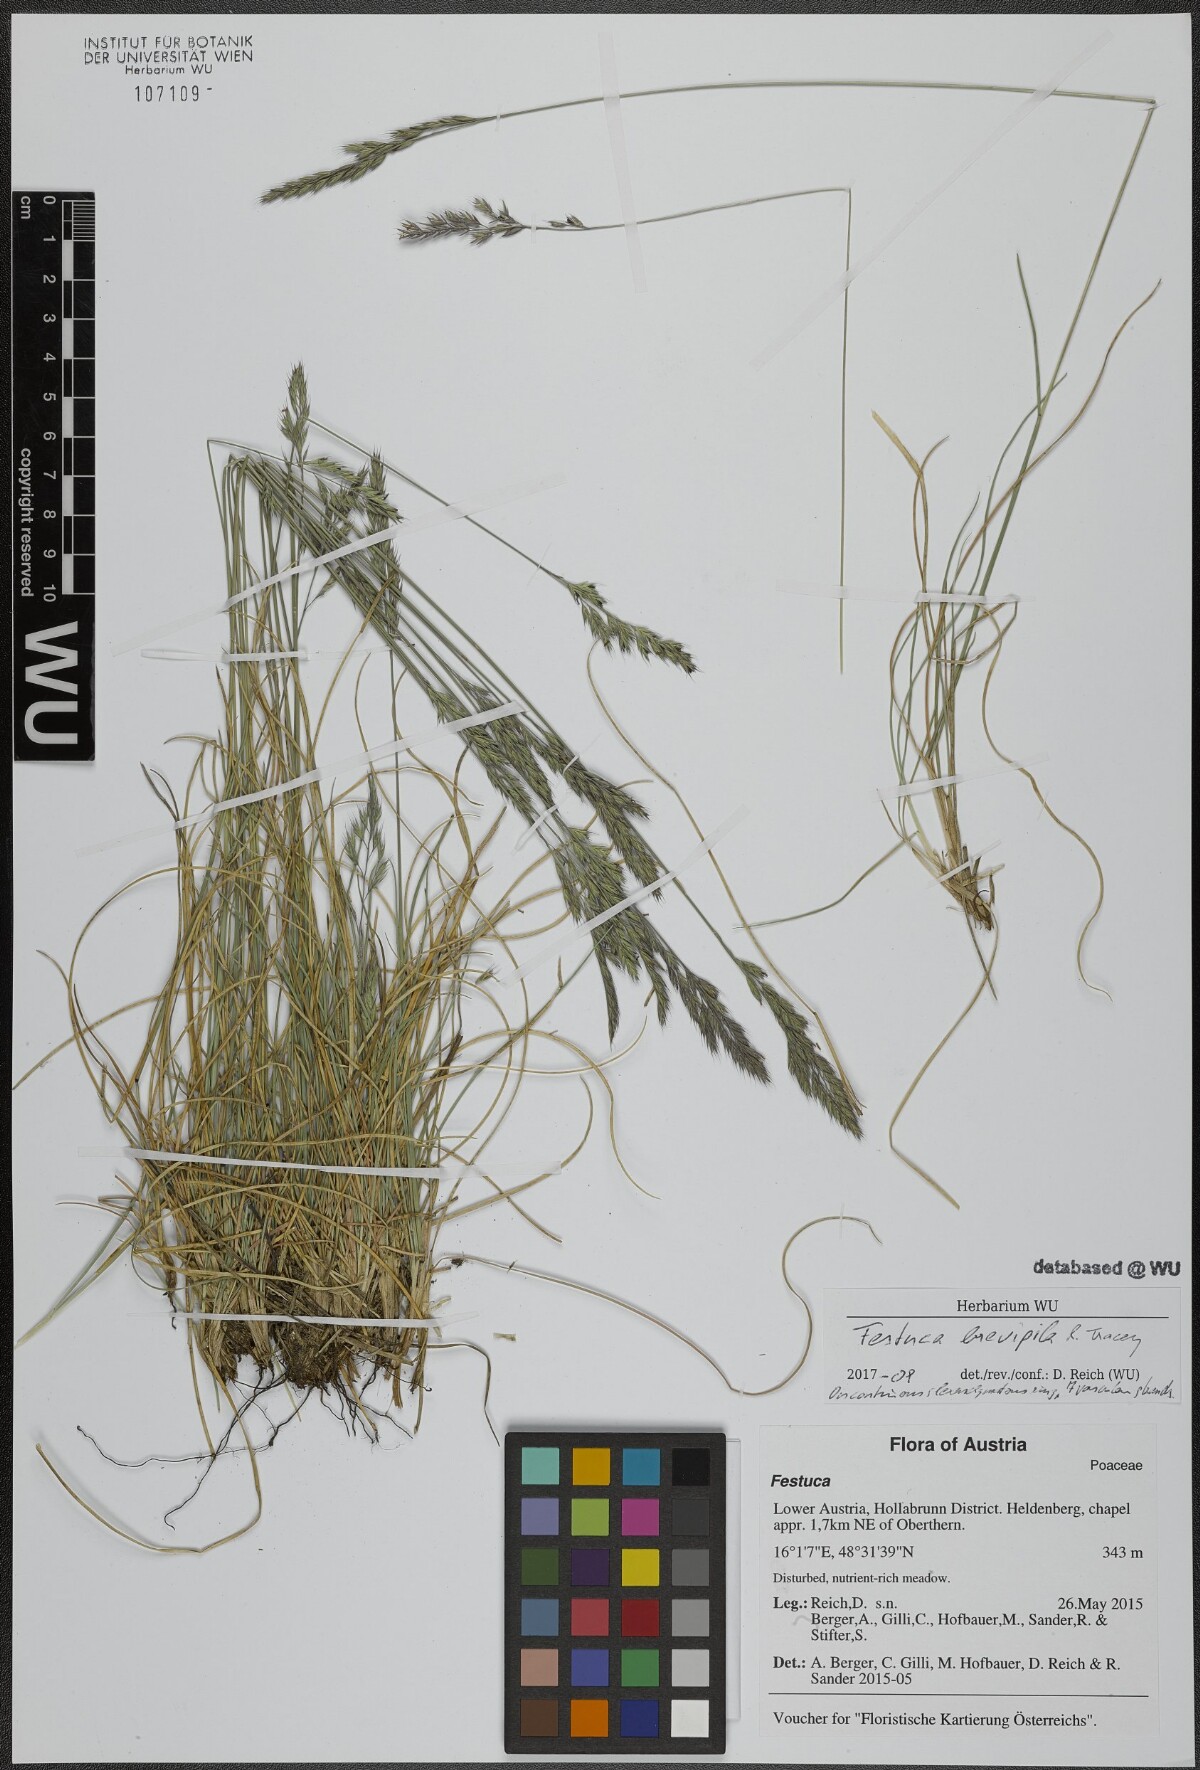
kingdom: Plantae
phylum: Tracheophyta
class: Liliopsida
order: Poales
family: Poaceae
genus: Festuca
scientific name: Festuca trachyphylla
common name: Hard fescue
